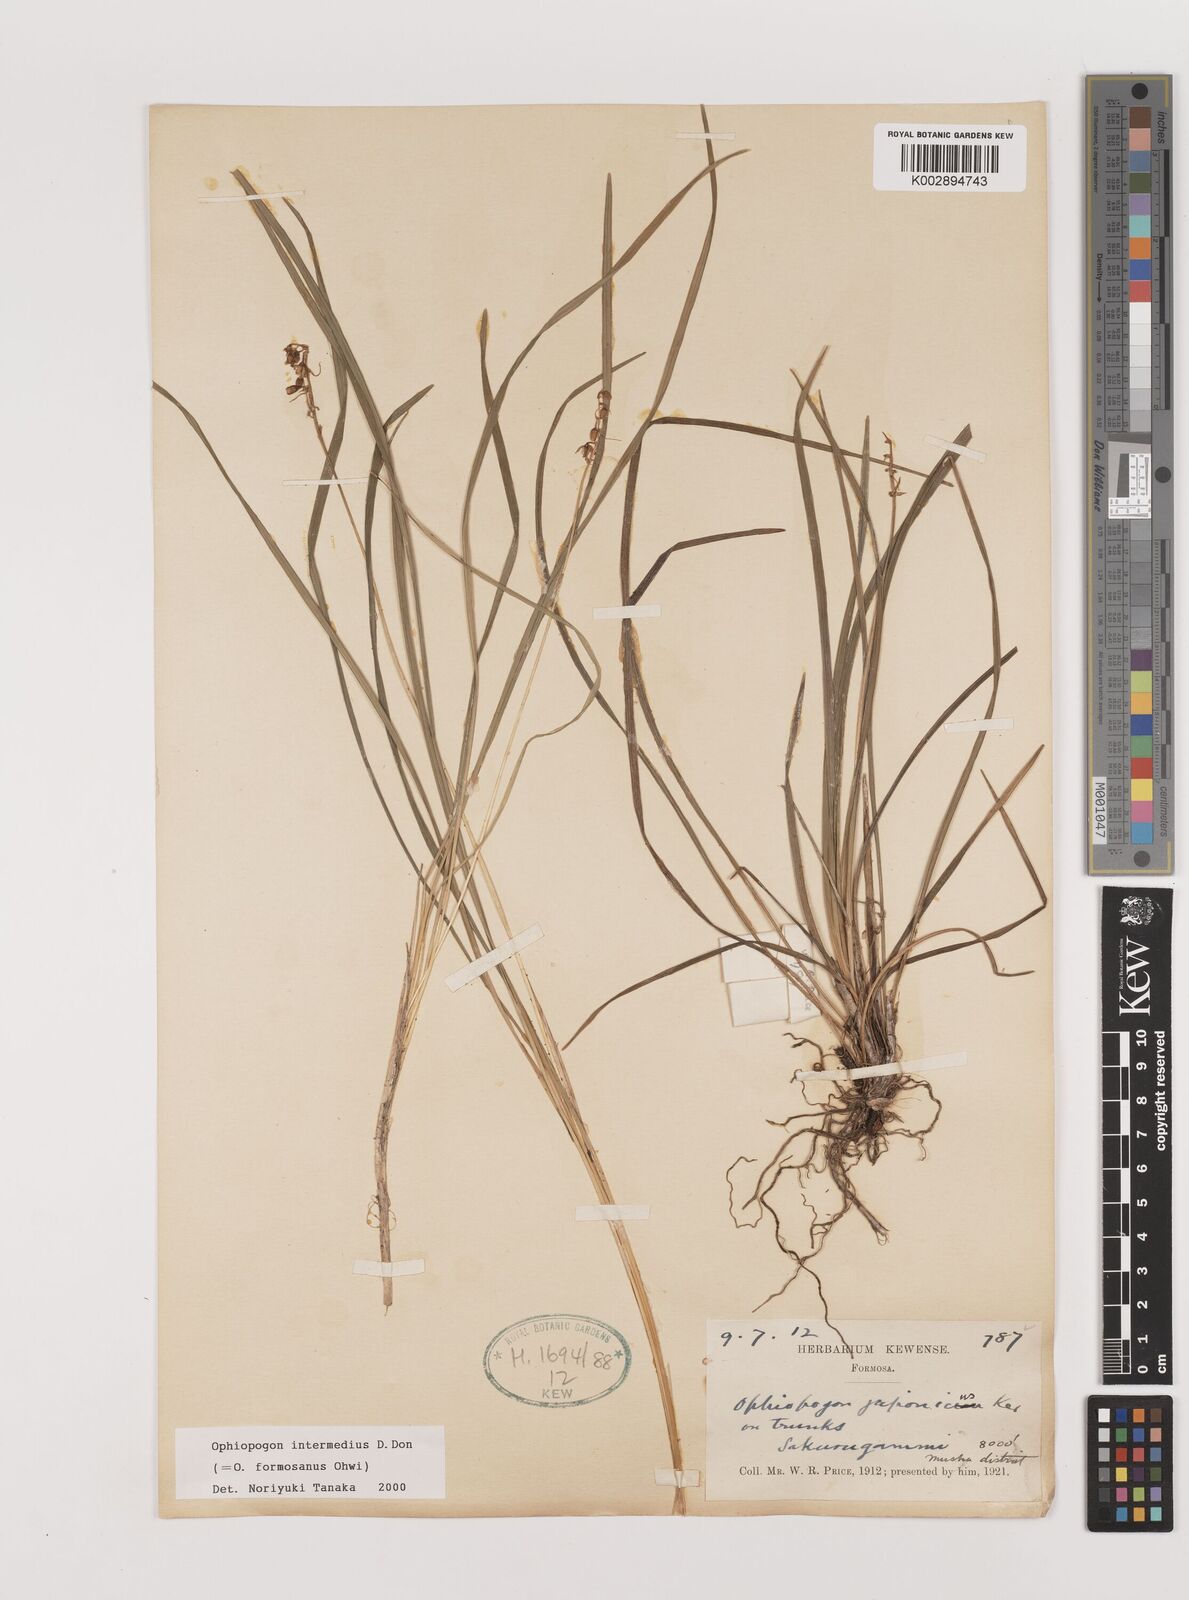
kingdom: Plantae
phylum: Tracheophyta
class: Liliopsida
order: Asparagales
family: Asparagaceae
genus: Ophiopogon
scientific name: Ophiopogon intermedius
